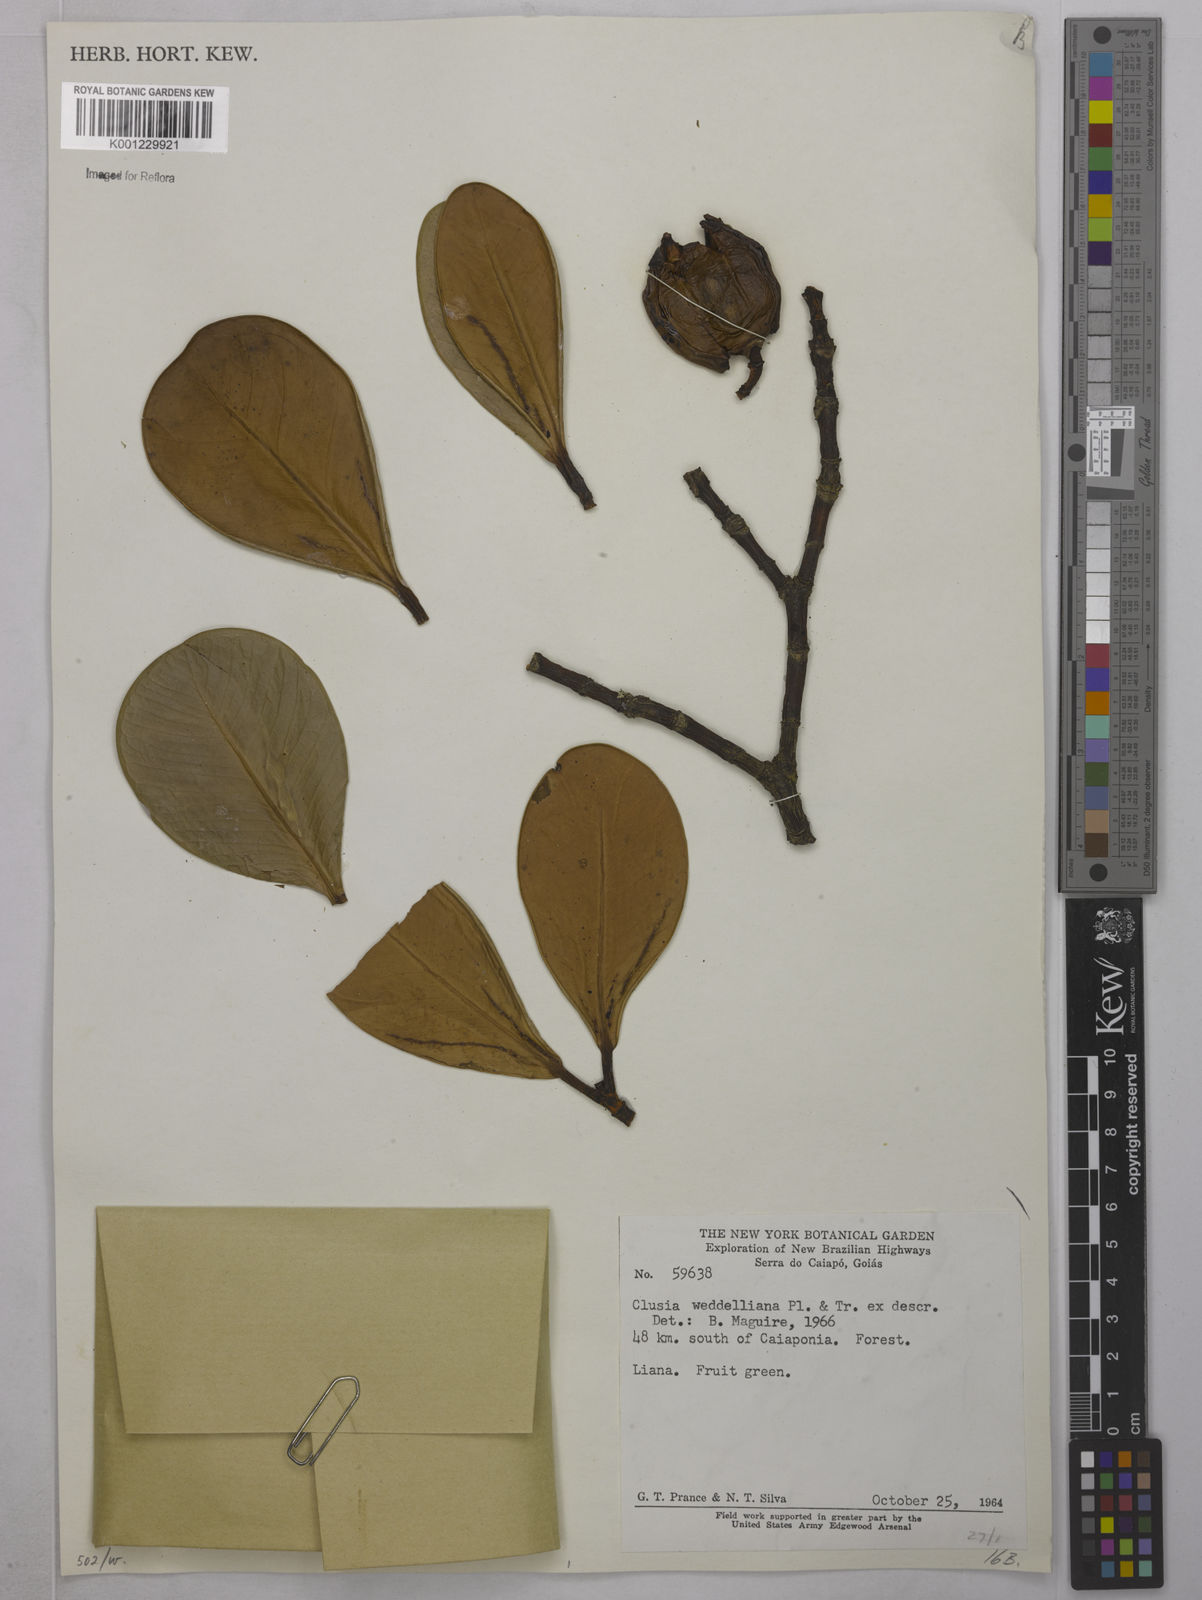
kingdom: Plantae
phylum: Tracheophyta
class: Magnoliopsida
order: Malpighiales
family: Clusiaceae
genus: Clusia
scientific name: Clusia weddelliana
